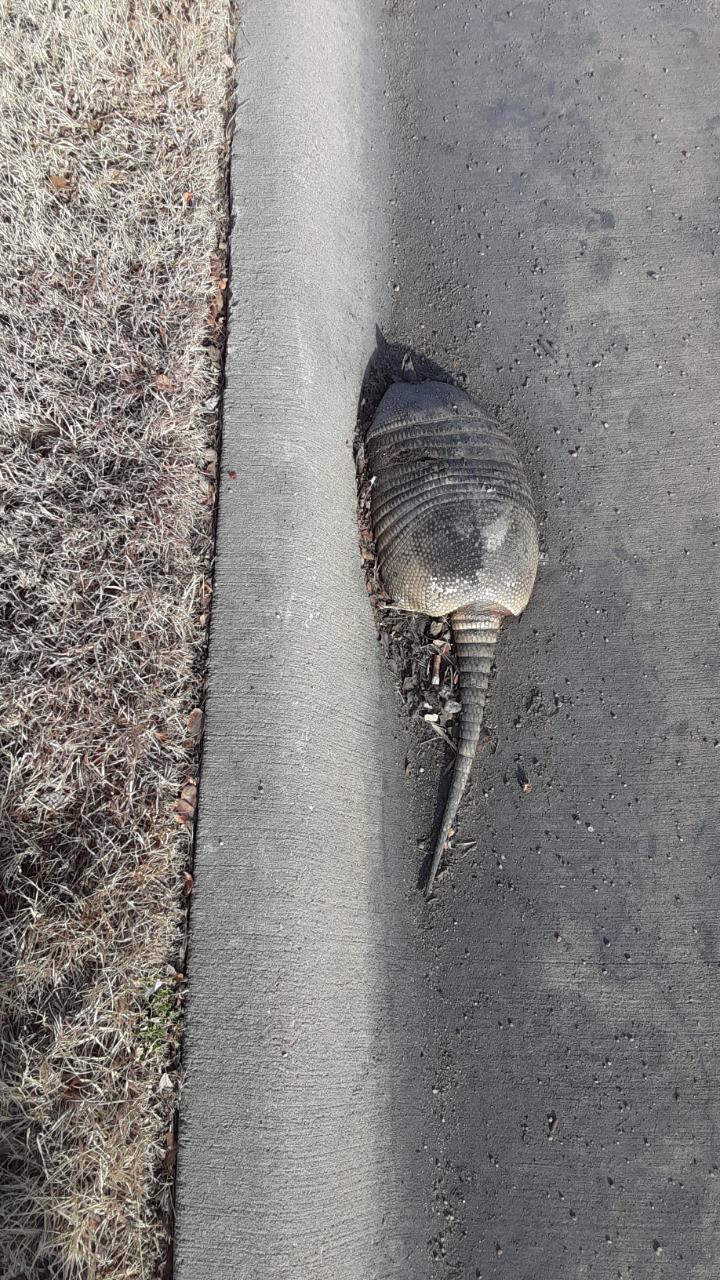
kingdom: Animalia
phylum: Chordata
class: Mammalia
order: Cingulata
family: Dasypodidae
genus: Dasypus
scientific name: Dasypus novemcinctus
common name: Nine-banded armadillo
